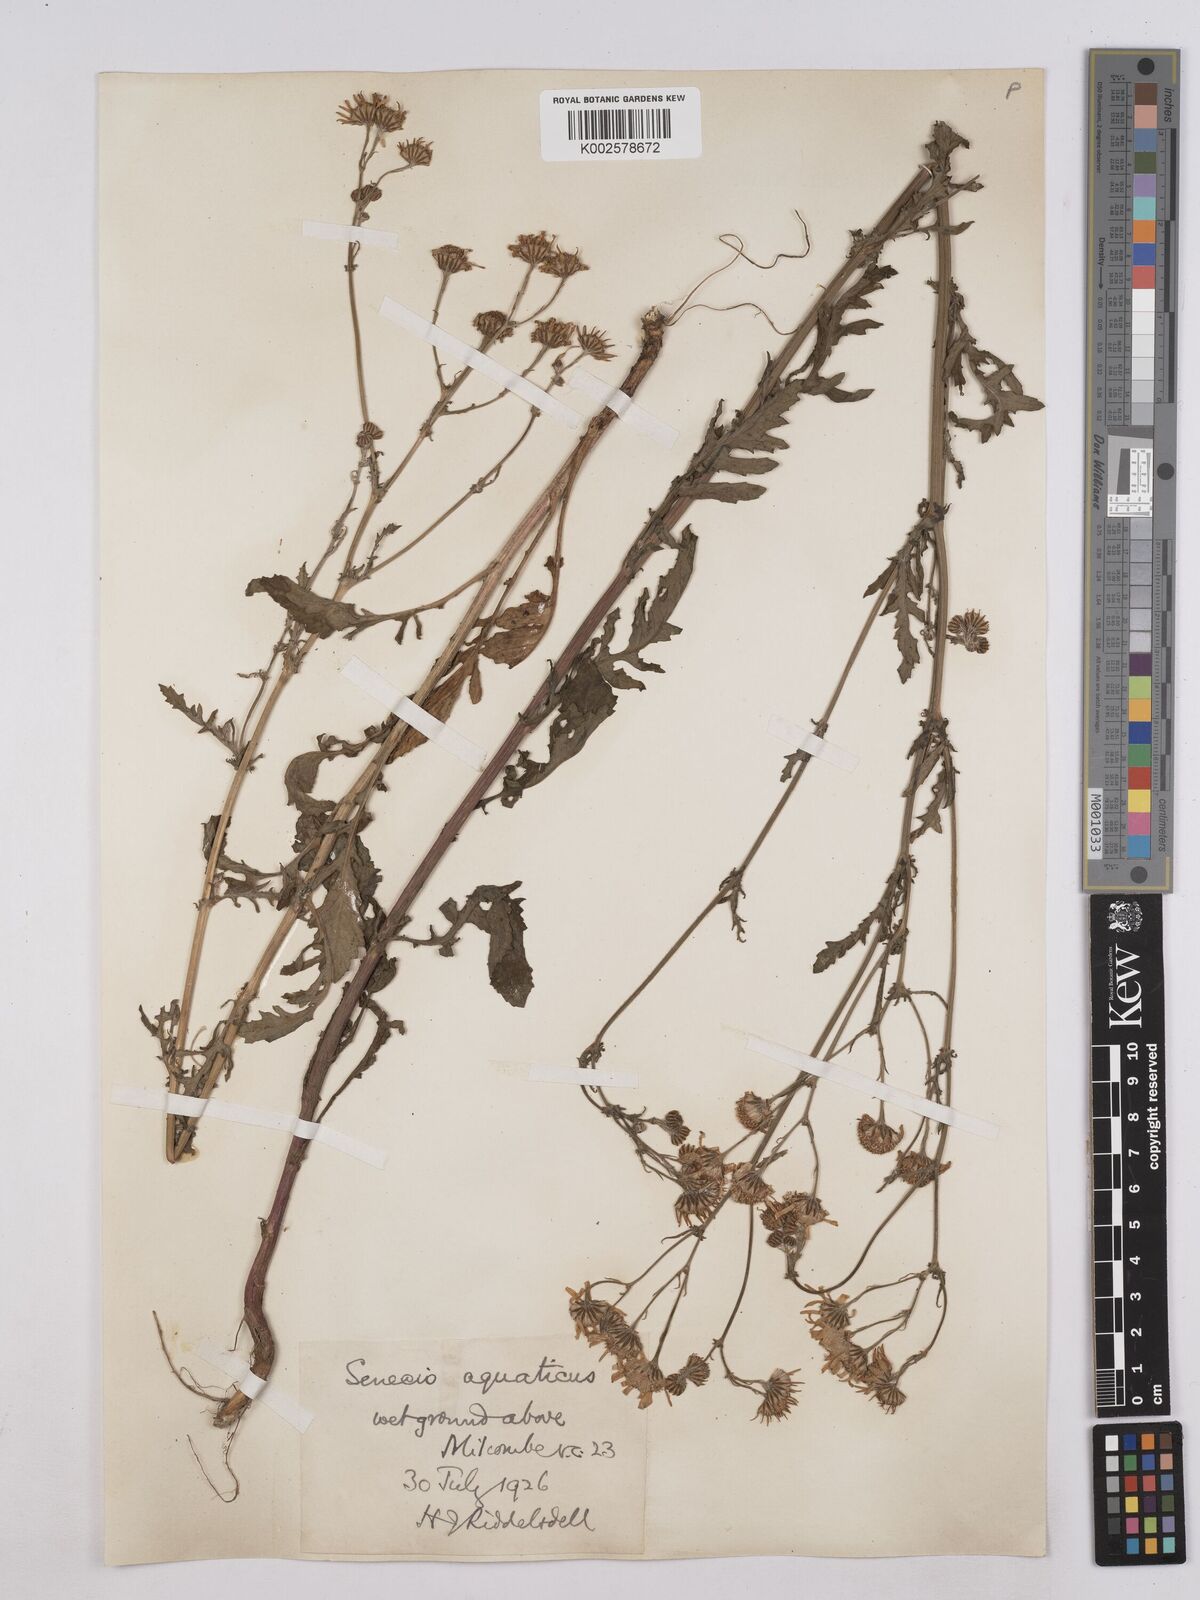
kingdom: Plantae
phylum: Tracheophyta
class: Magnoliopsida
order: Asterales
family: Asteraceae
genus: Jacobaea
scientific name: Jacobaea aquatica
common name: Water ragwort
